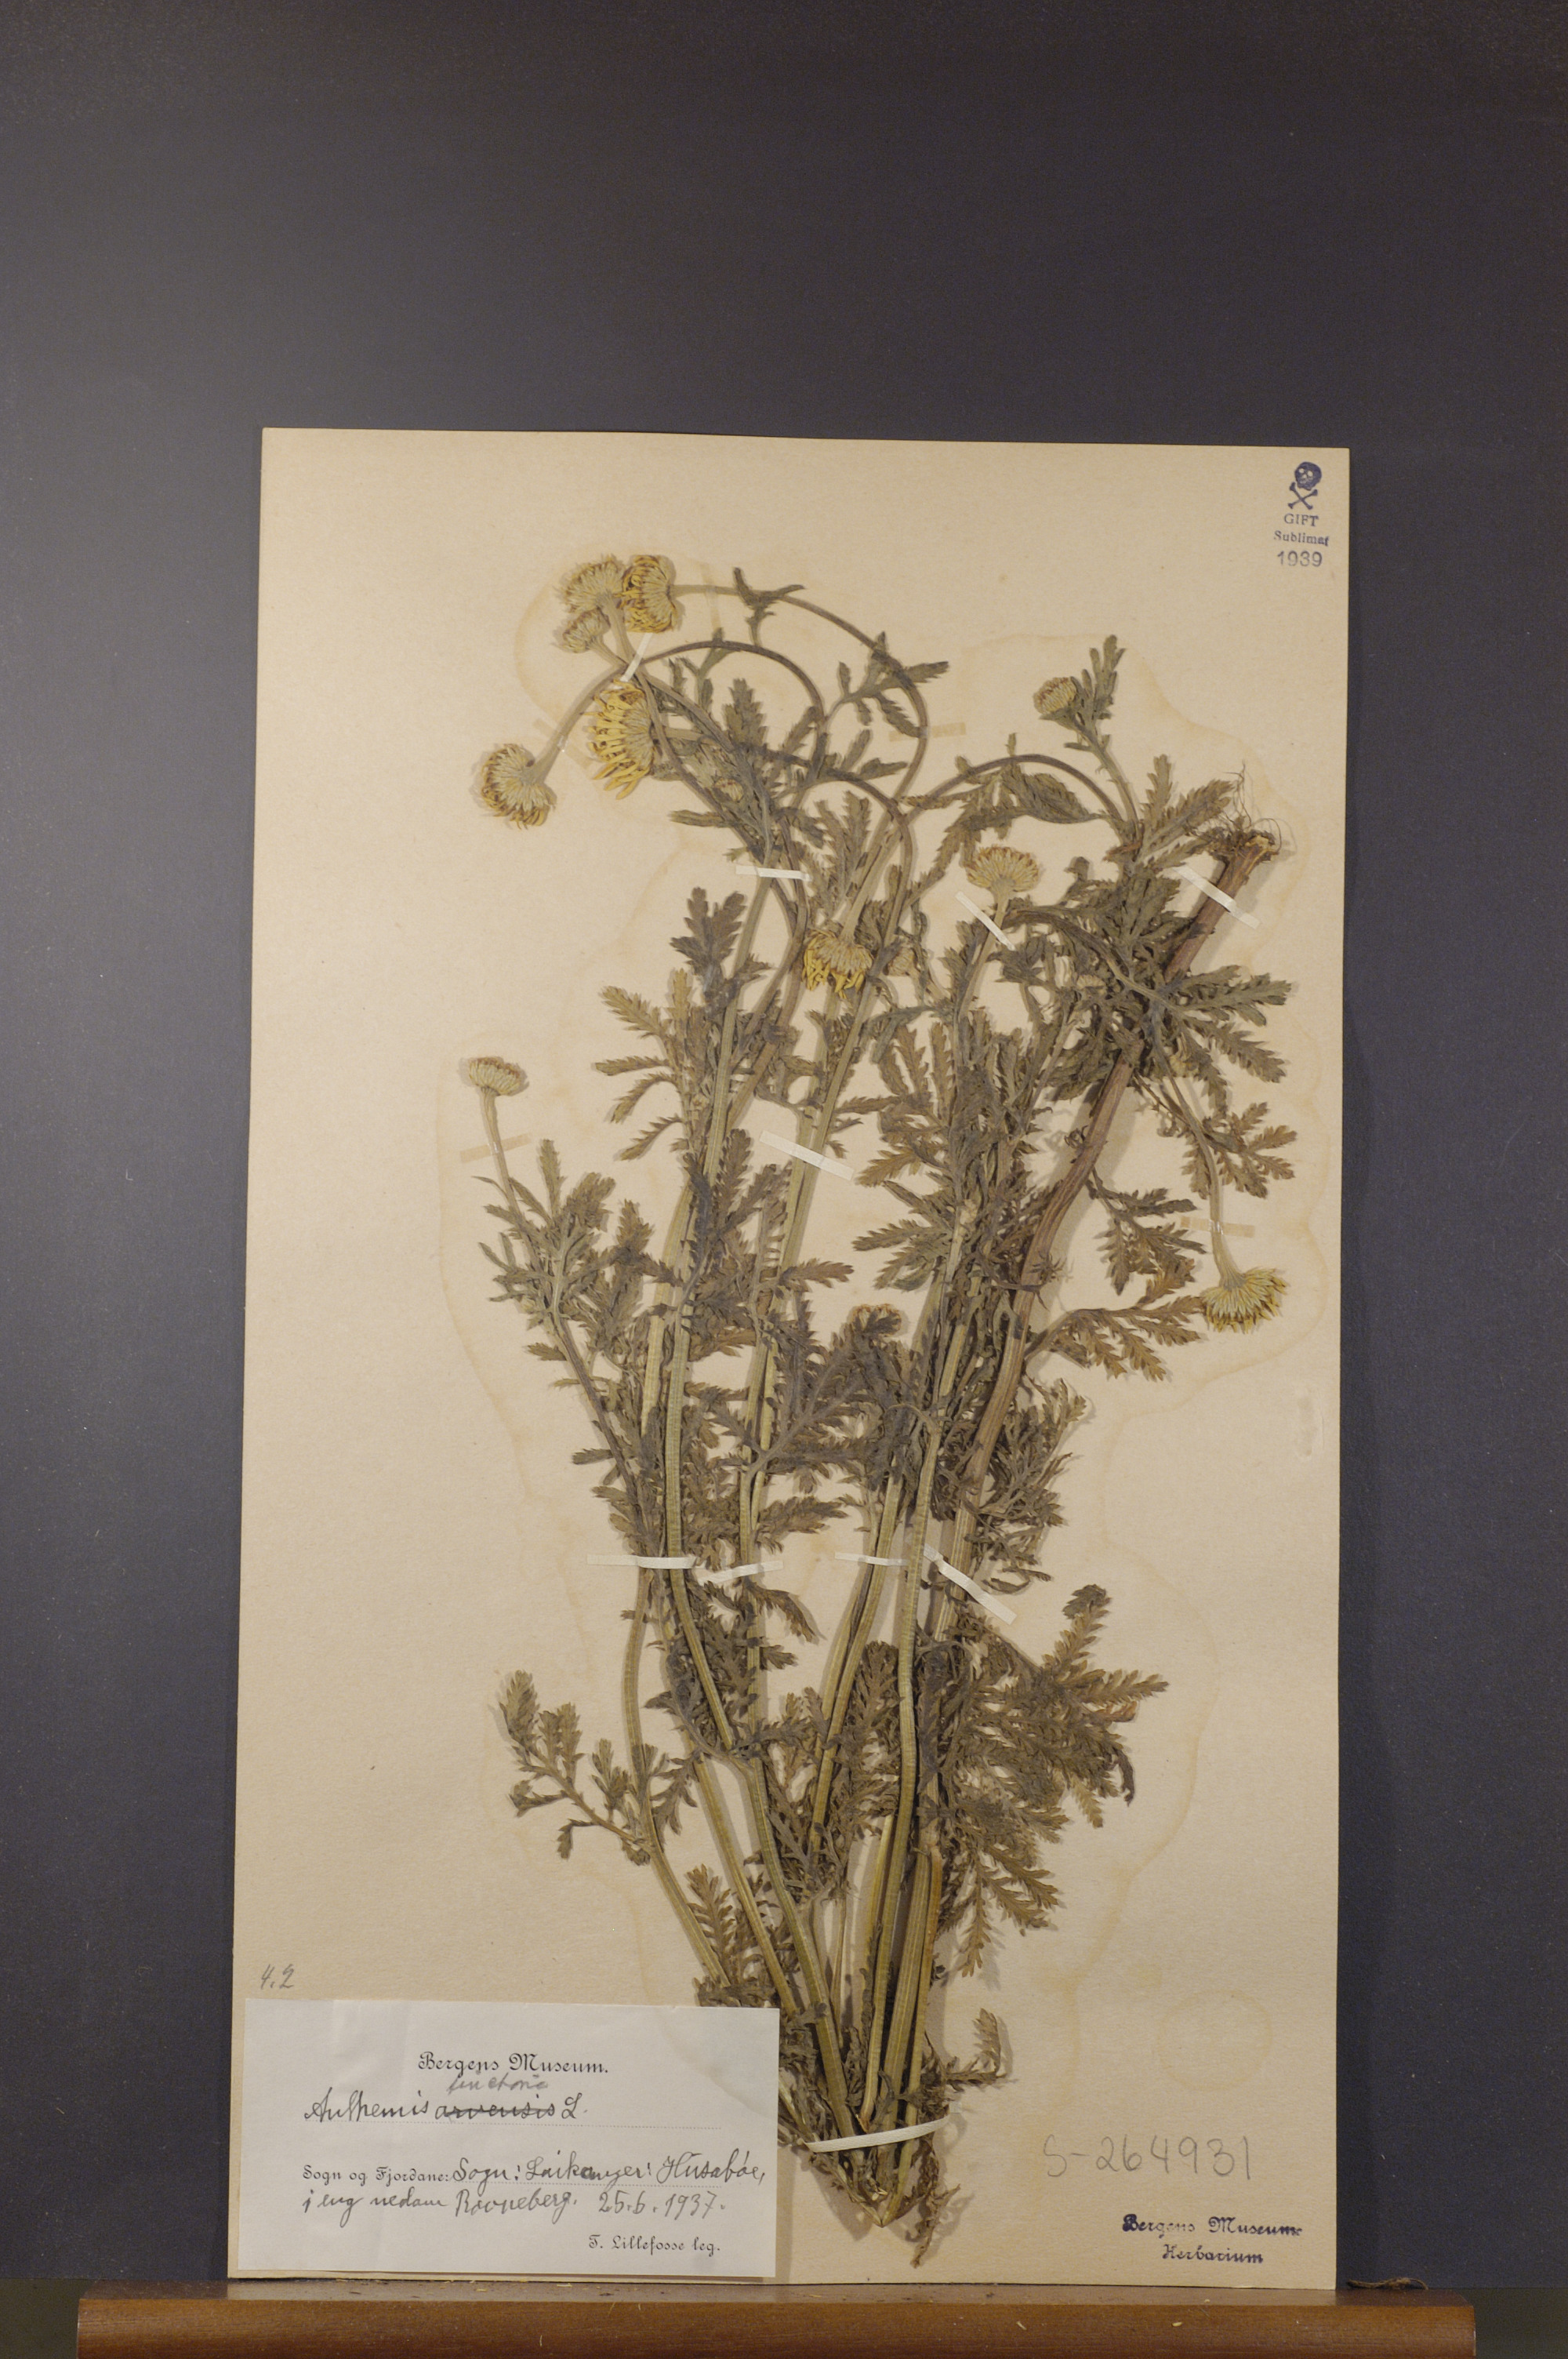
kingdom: Plantae
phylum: Tracheophyta
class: Magnoliopsida
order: Asterales
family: Asteraceae
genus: Cota
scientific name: Cota tinctoria
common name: Golden chamomile
